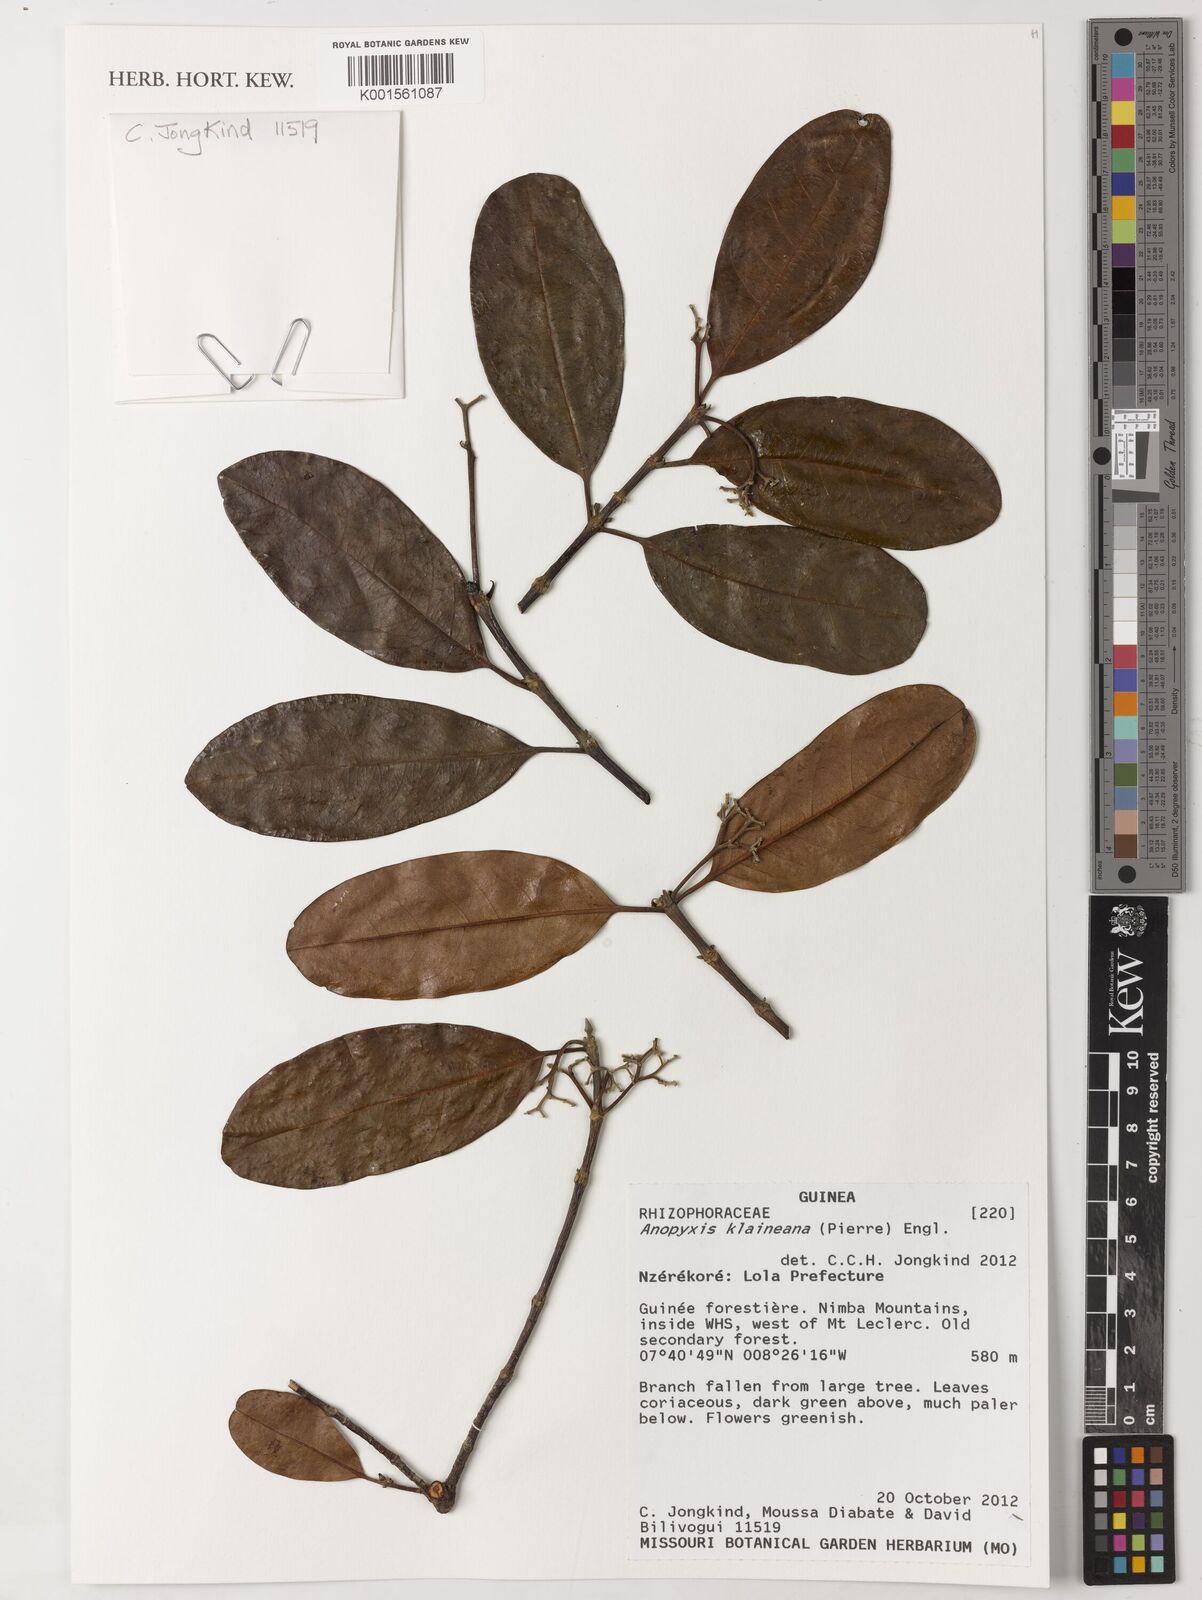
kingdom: Plantae
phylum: Tracheophyta
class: Magnoliopsida
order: Malpighiales
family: Rhizophoraceae
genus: Anopyxis
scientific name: Anopyxis klaineana
